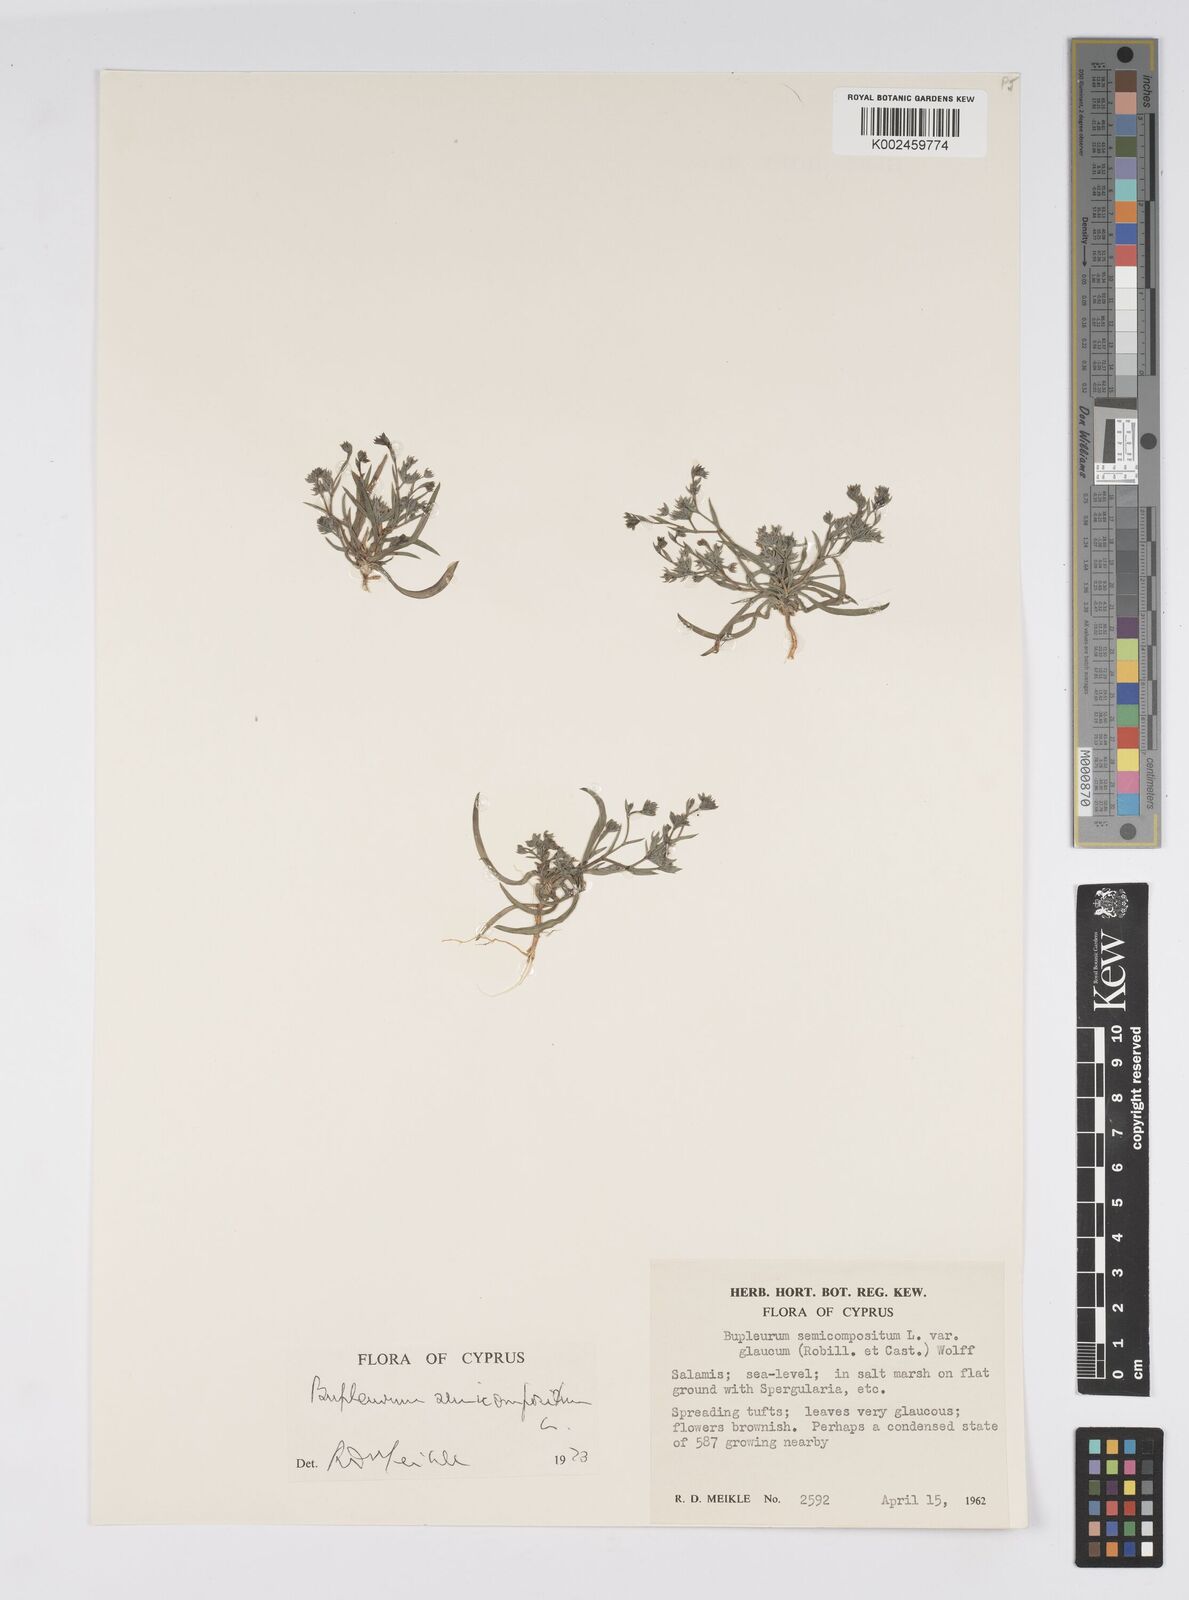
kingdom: Plantae
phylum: Tracheophyta
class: Magnoliopsida
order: Apiales
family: Apiaceae
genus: Bupleurum
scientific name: Bupleurum semicompositum
